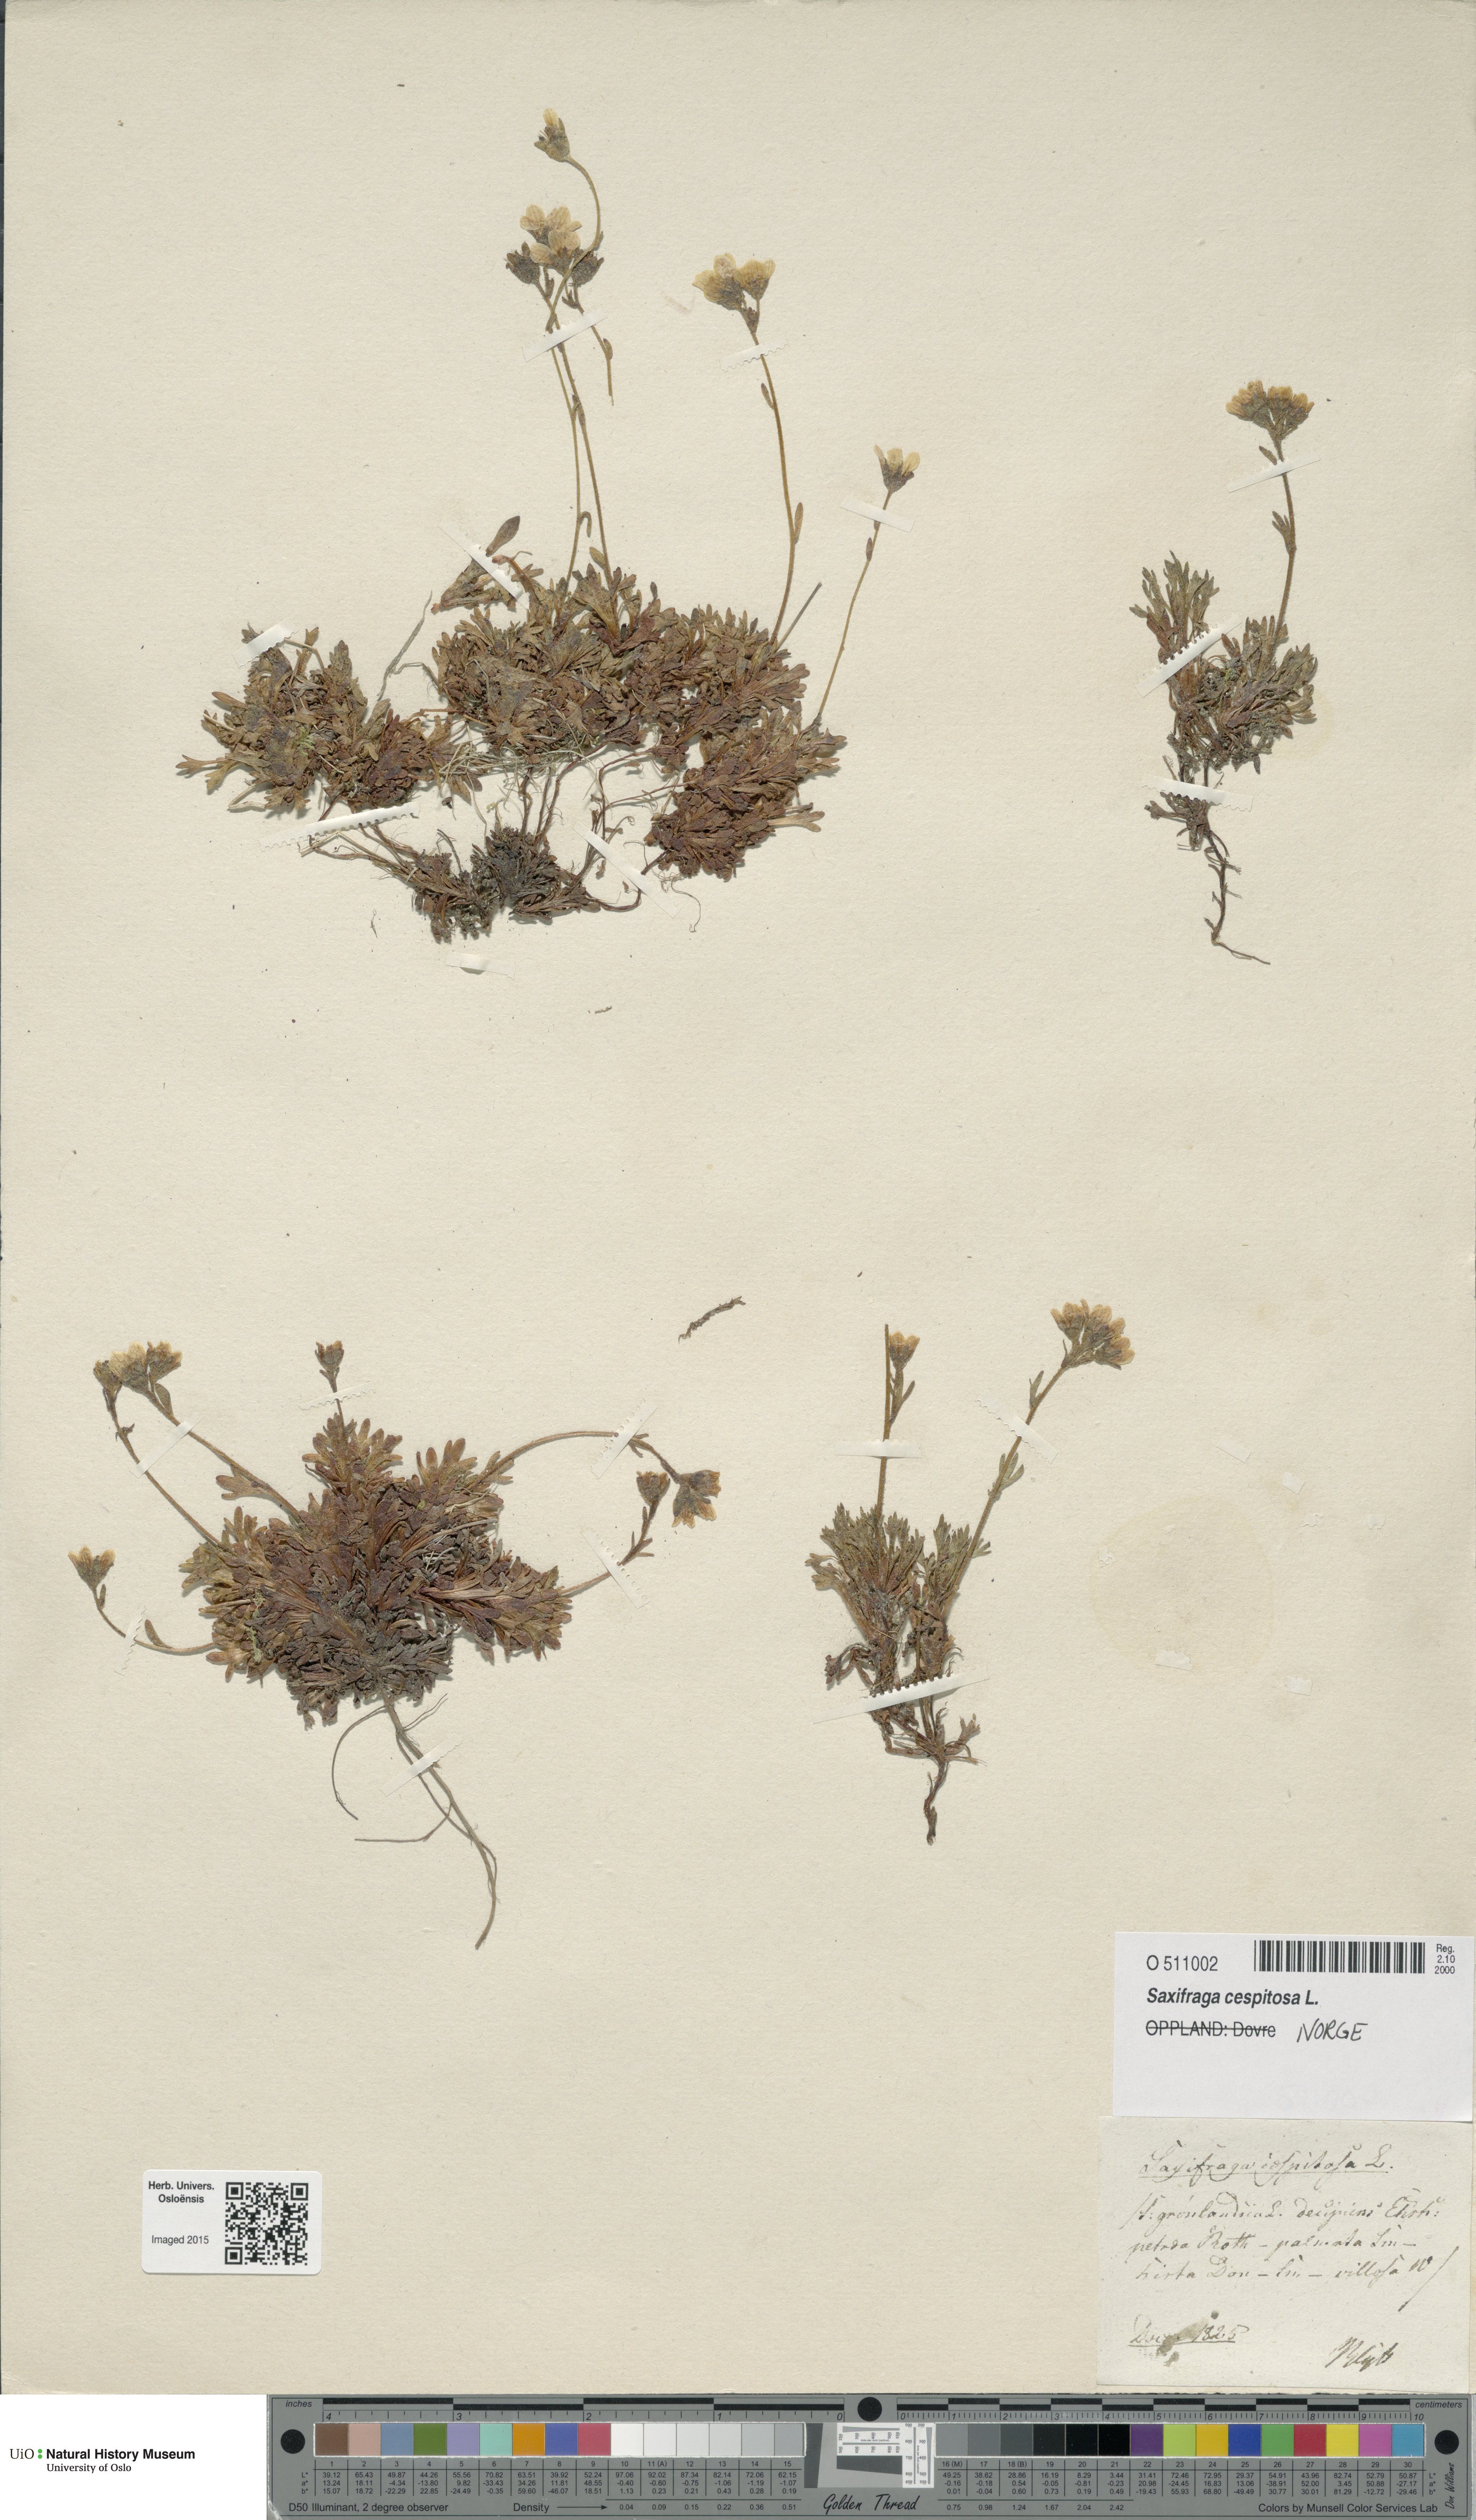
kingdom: Plantae
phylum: Tracheophyta
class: Magnoliopsida
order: Saxifragales
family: Saxifragaceae
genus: Saxifraga
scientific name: Saxifraga cespitosa
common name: Tufted saxifrage
